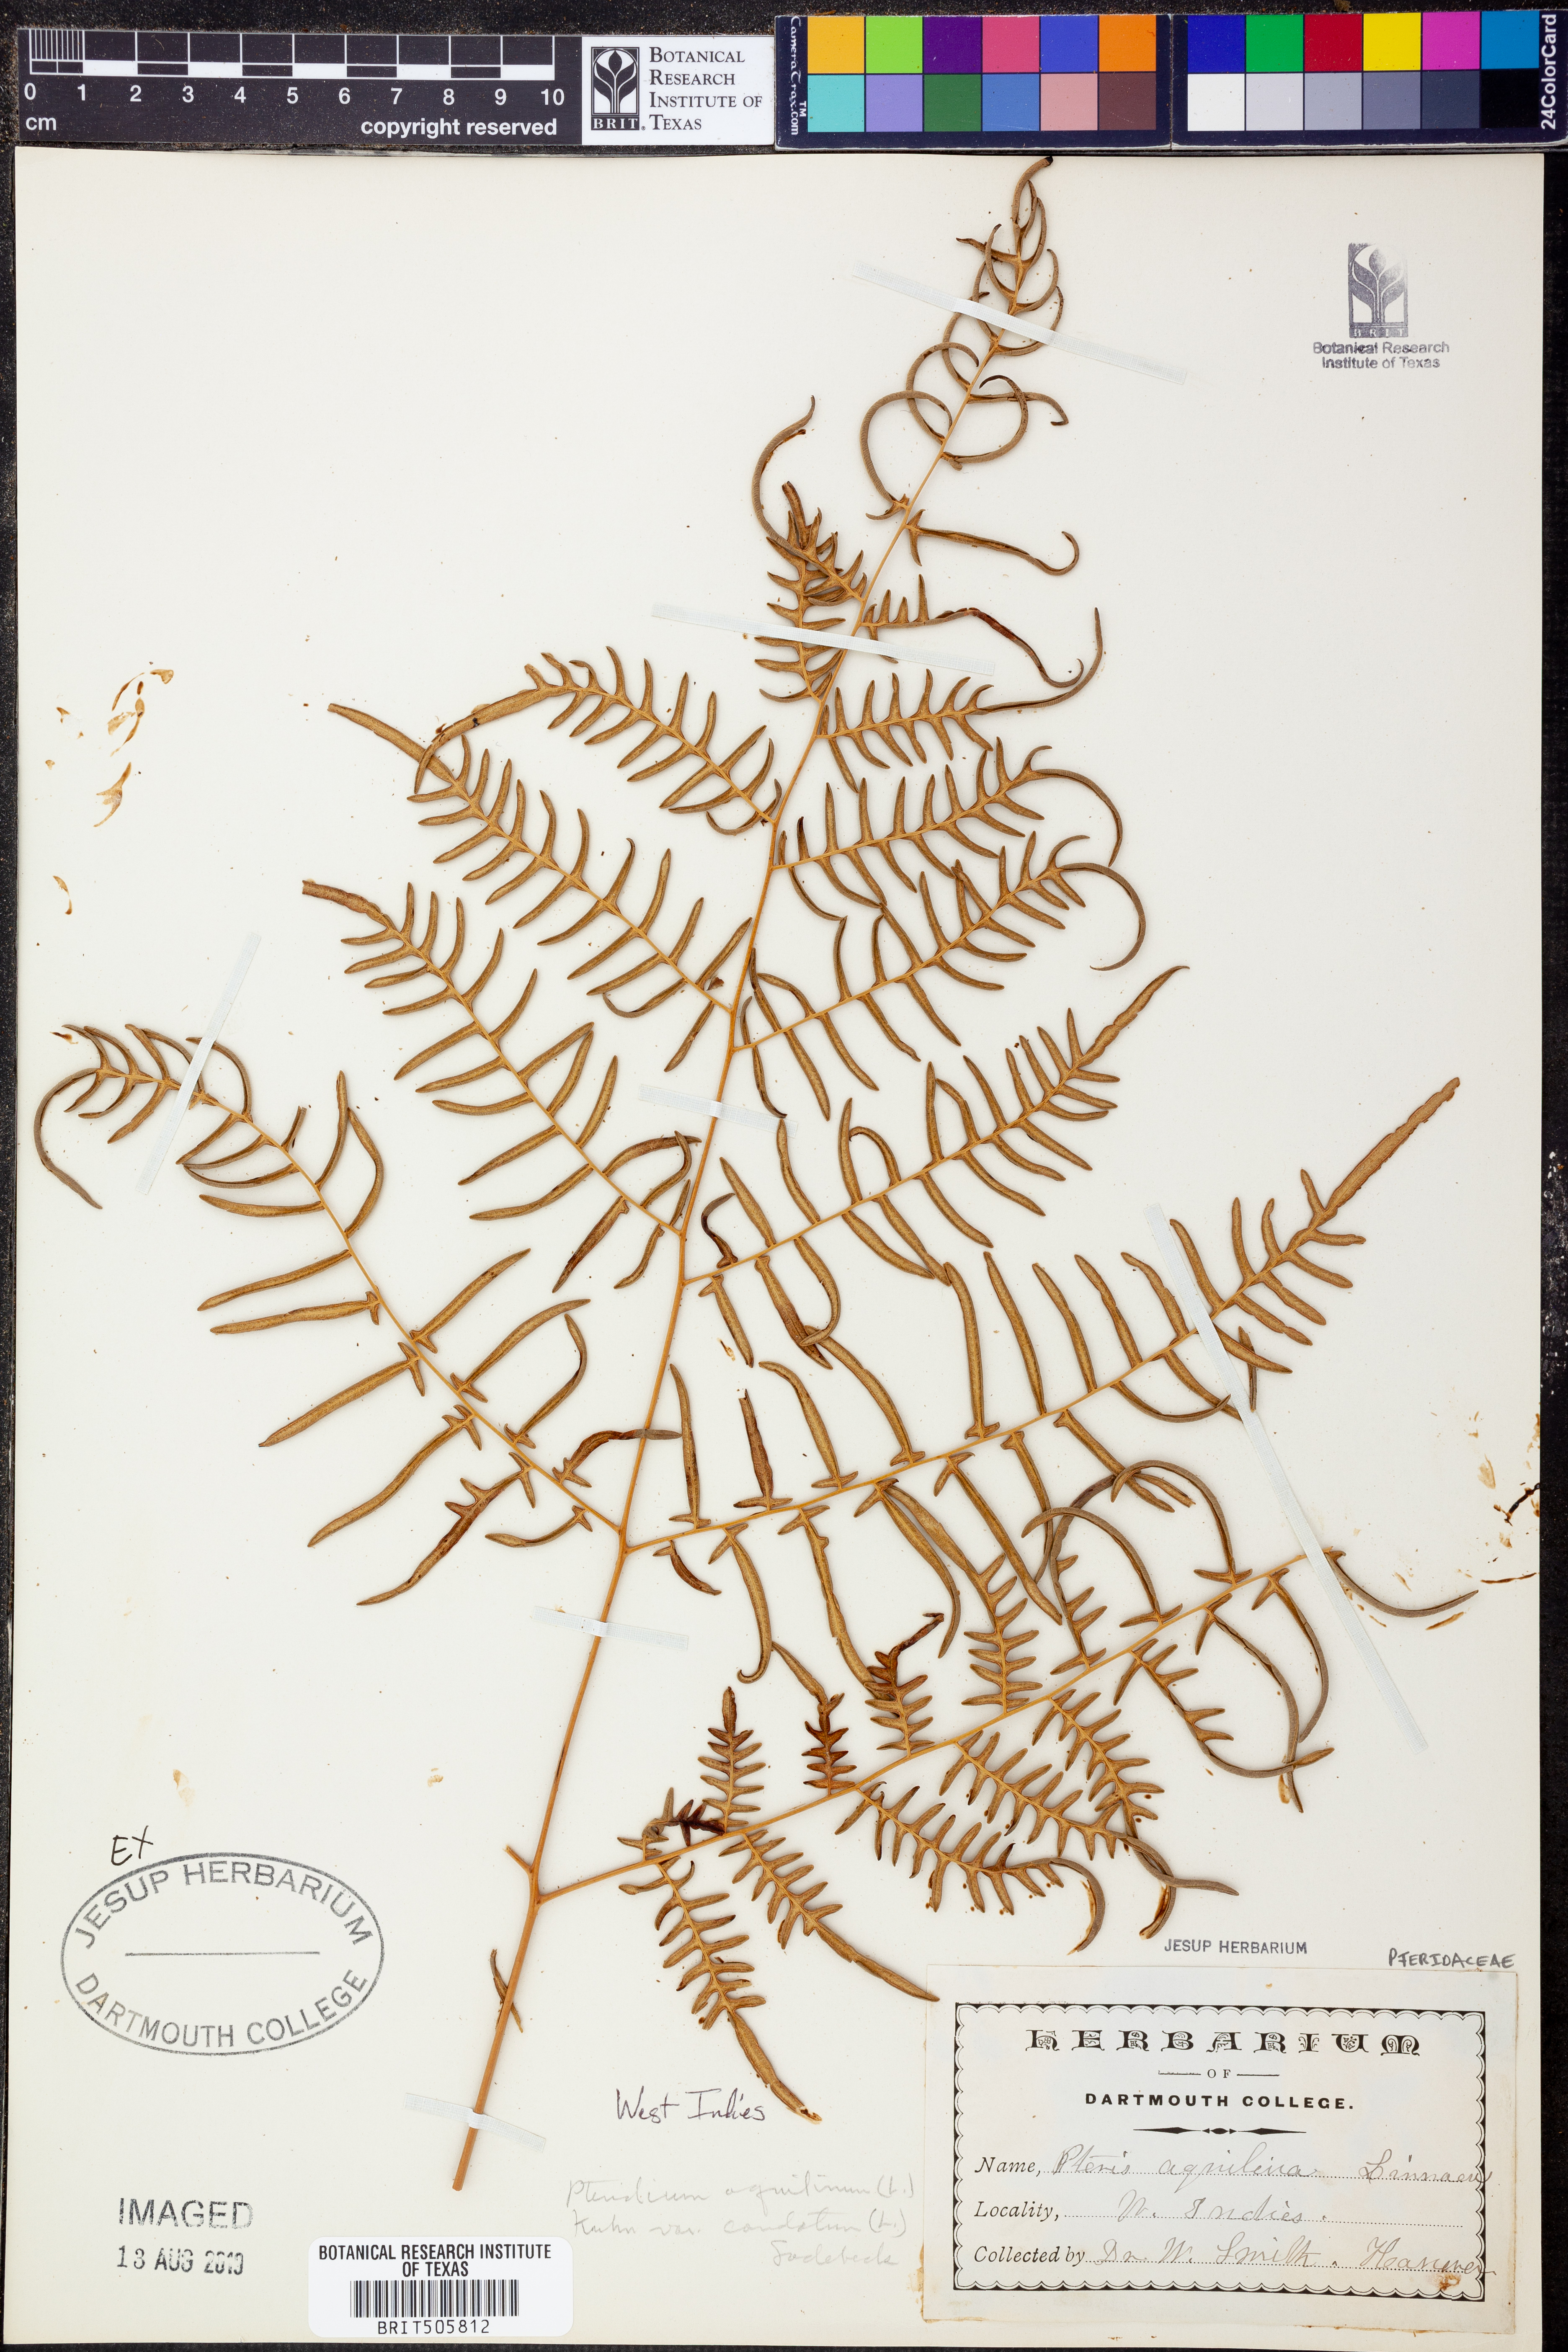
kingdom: Plantae
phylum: Tracheophyta
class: Polypodiopsida
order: Polypodiales
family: Dennstaedtiaceae
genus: Pteridium
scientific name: Pteridium caudatum
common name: Southern bracken fern
